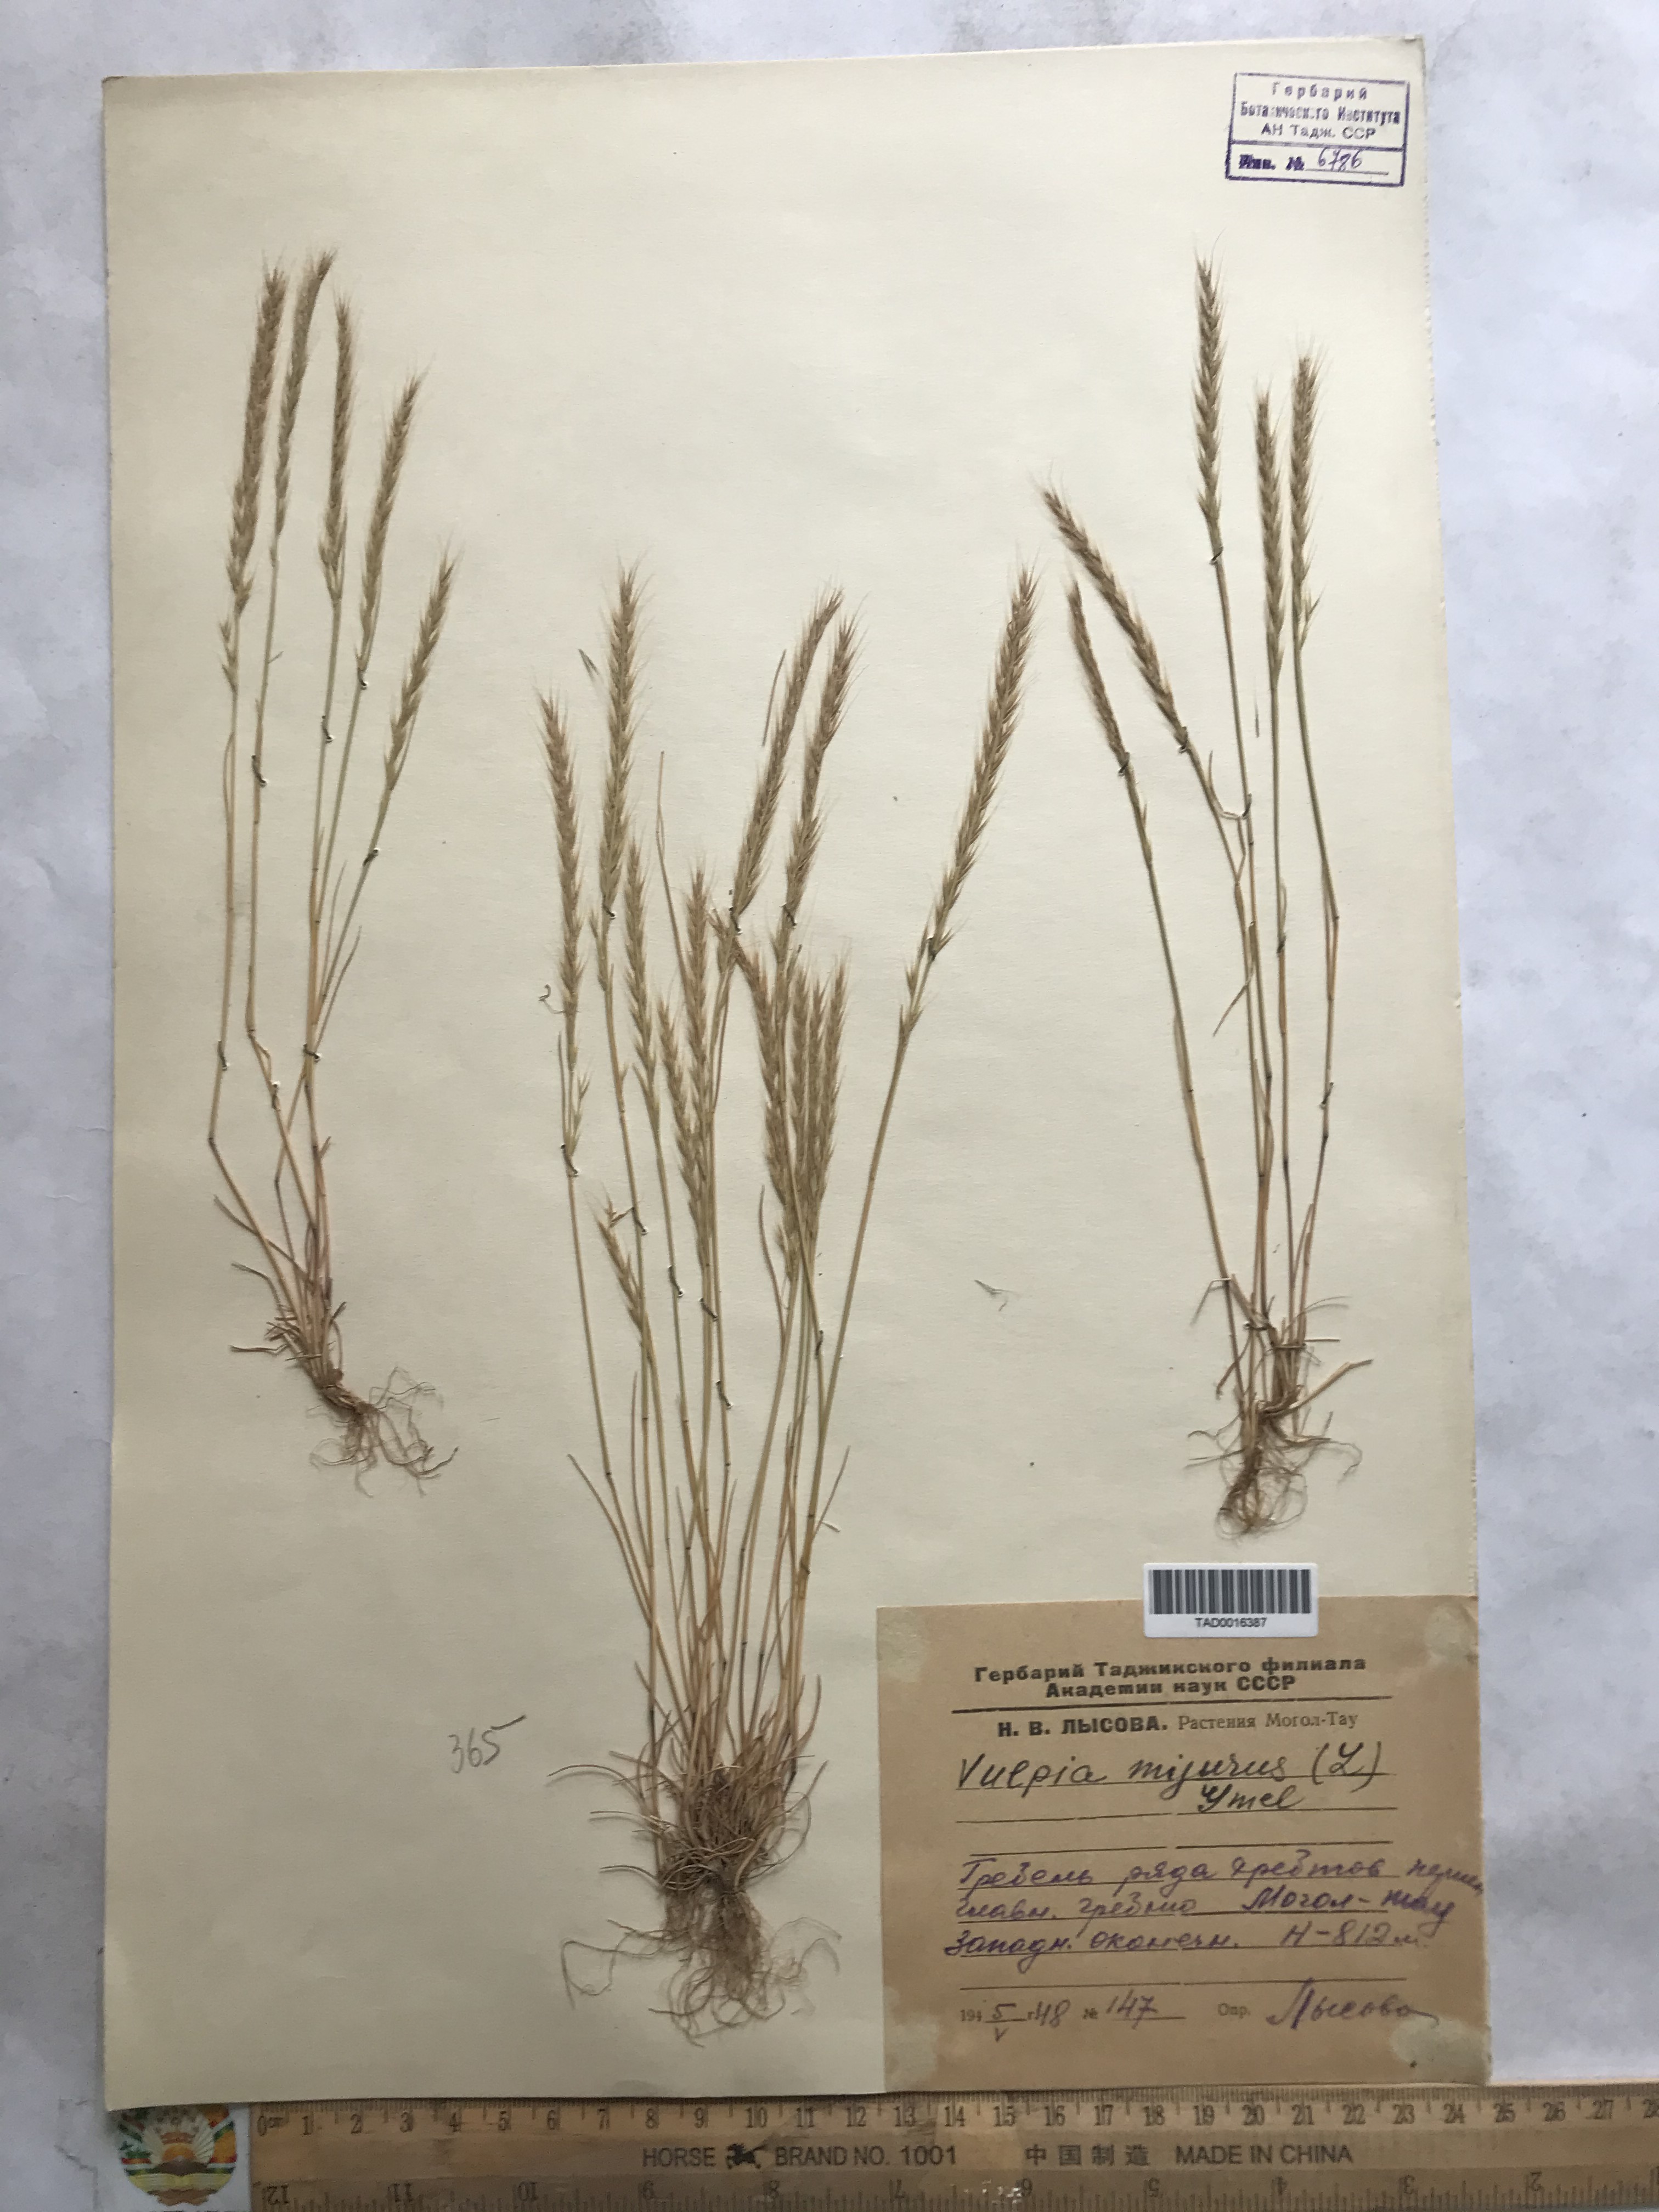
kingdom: Plantae
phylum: Tracheophyta
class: Liliopsida
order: Poales
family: Poaceae
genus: Festuca
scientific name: Festuca myuros
